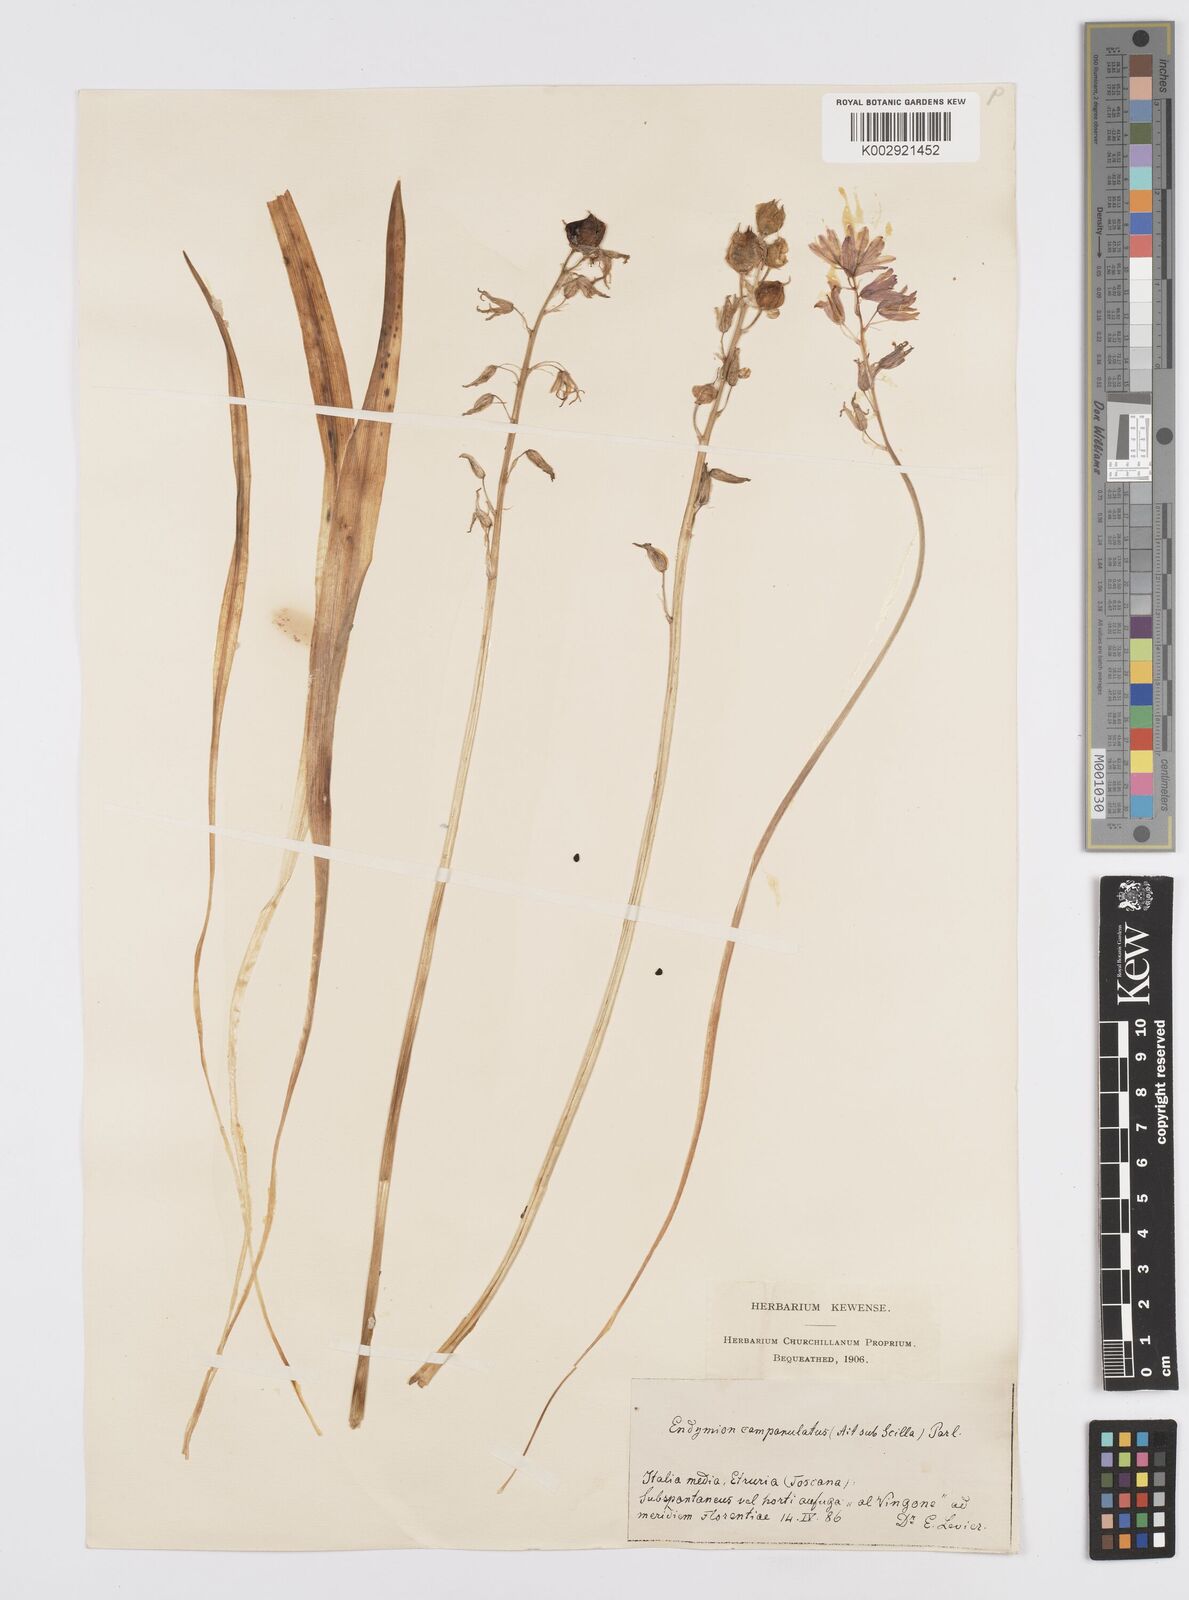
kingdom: Plantae
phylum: Tracheophyta
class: Liliopsida
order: Asparagales
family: Asparagaceae
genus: Hyacinthoides
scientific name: Hyacinthoides hispanica
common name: Spanish bluebell
